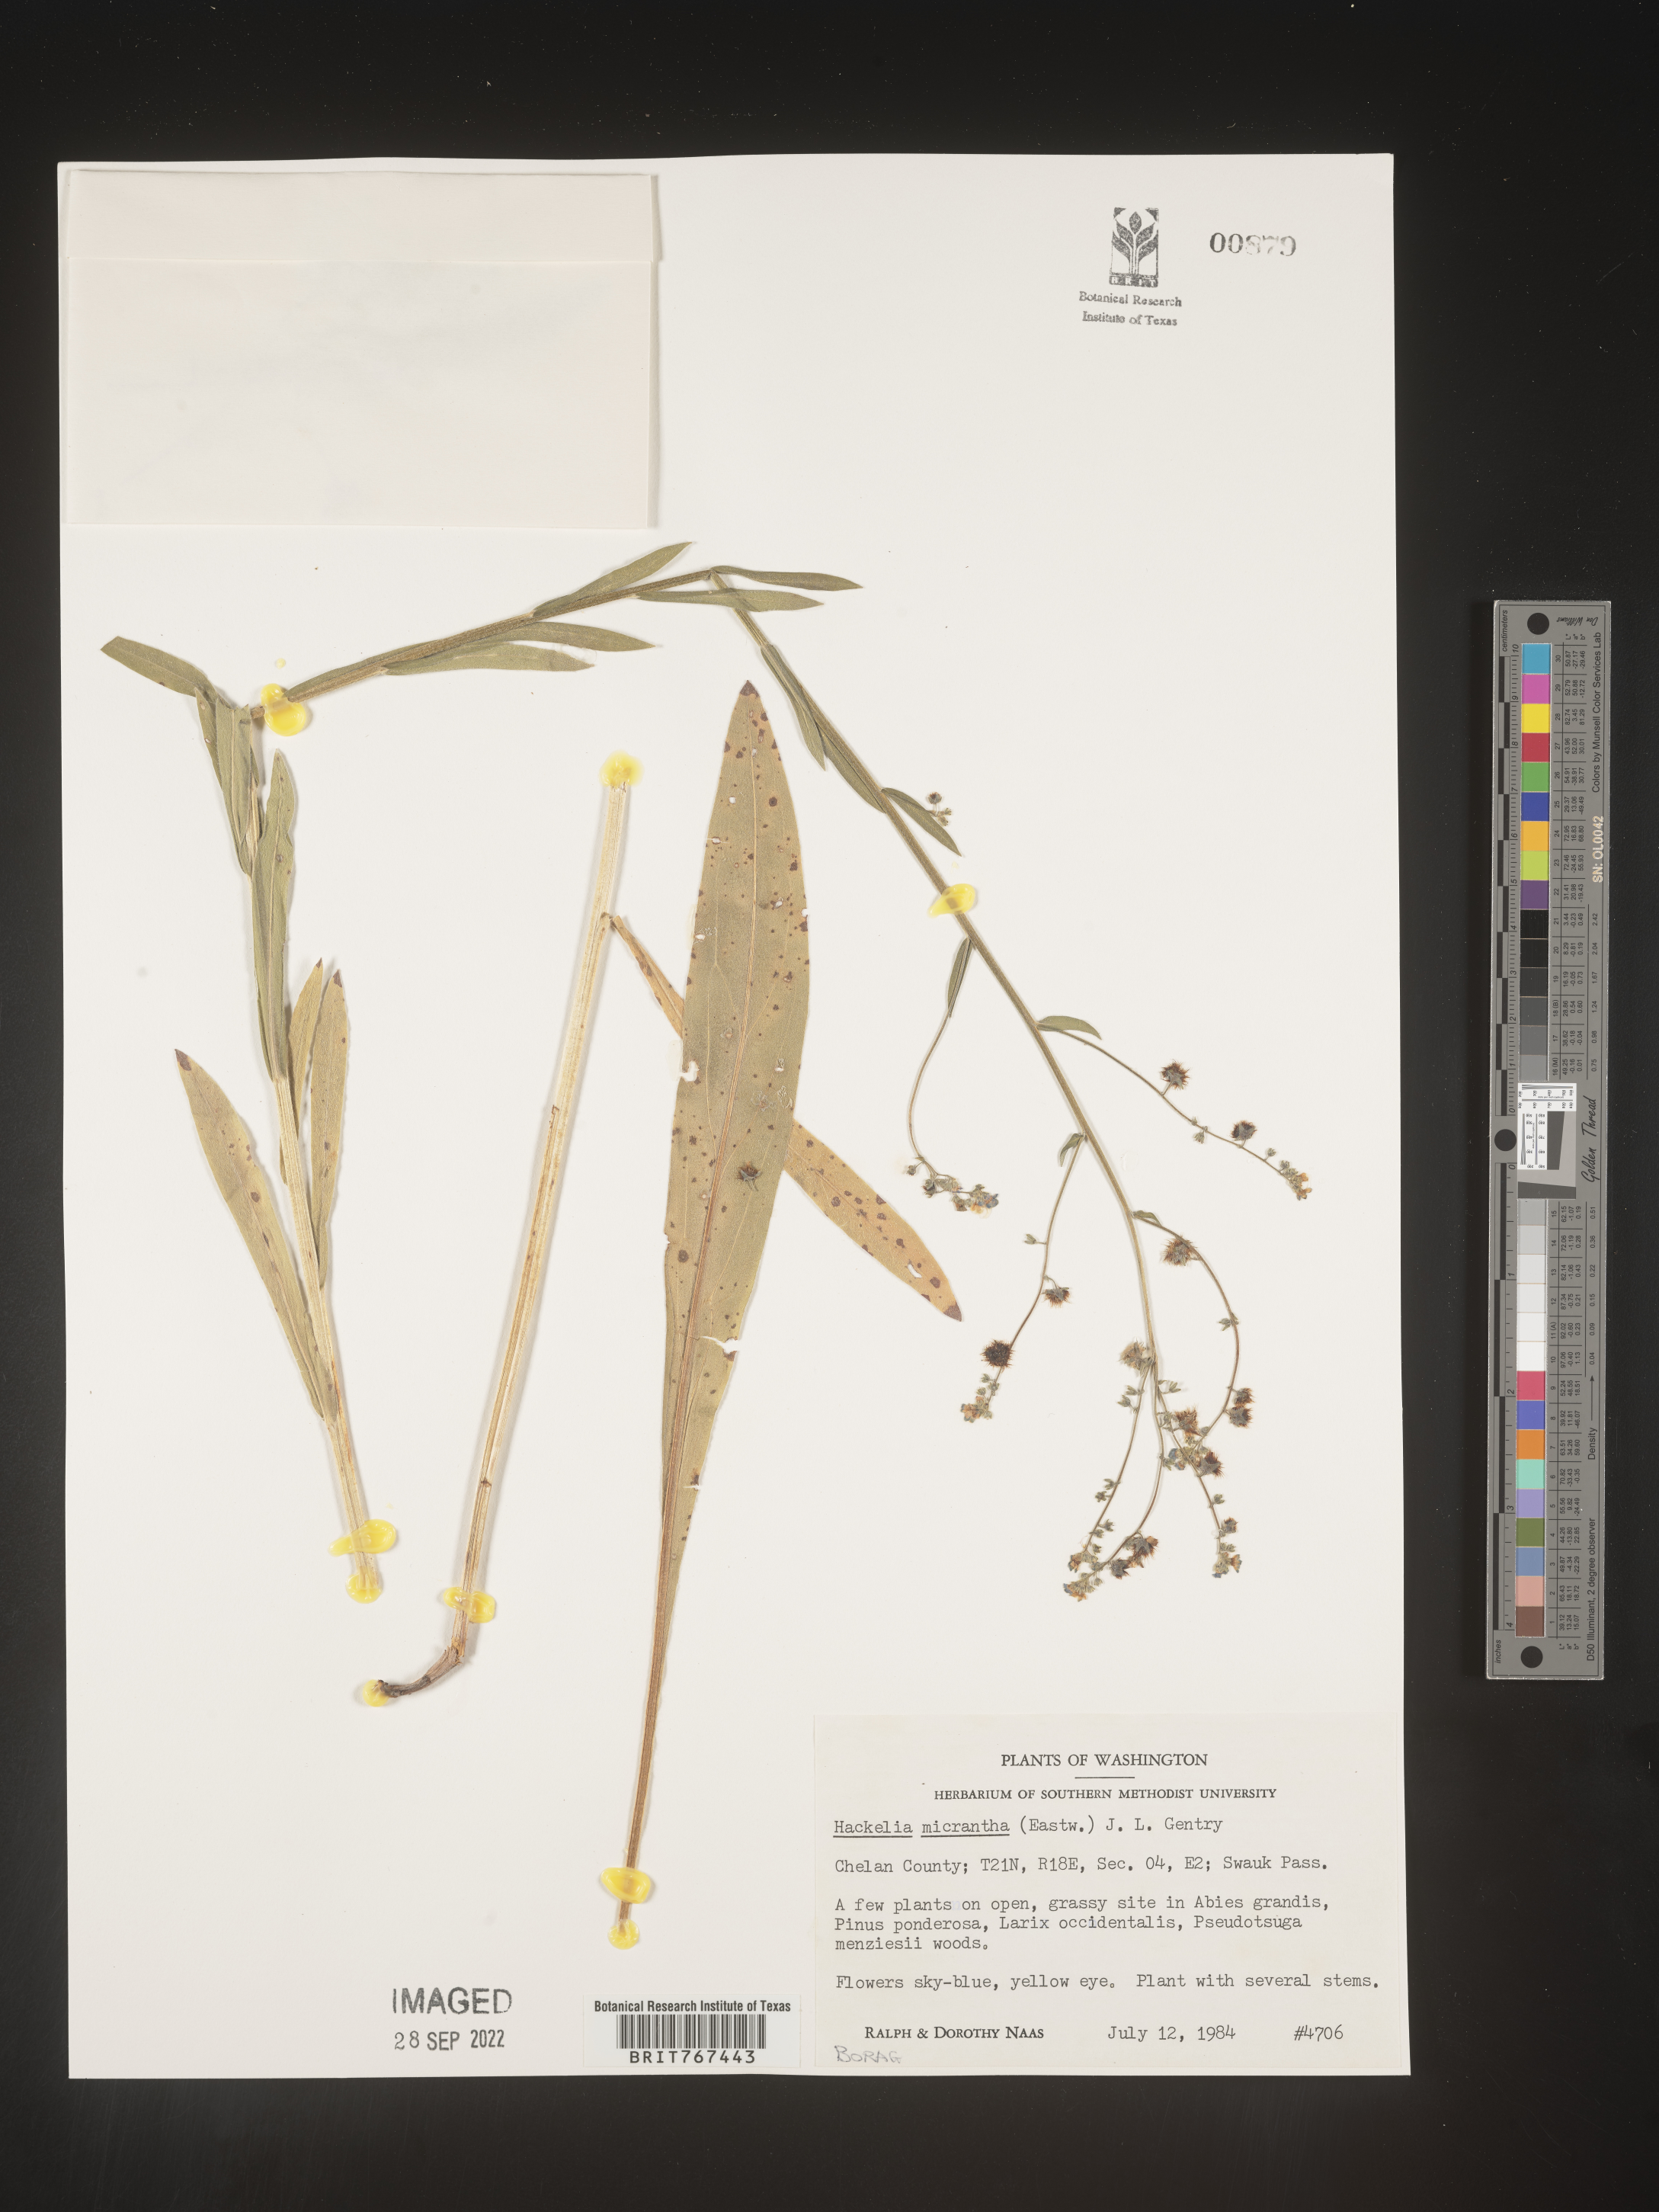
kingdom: Plantae
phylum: Tracheophyta
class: Magnoliopsida
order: Boraginales
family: Boraginaceae
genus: Hackelia
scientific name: Hackelia
